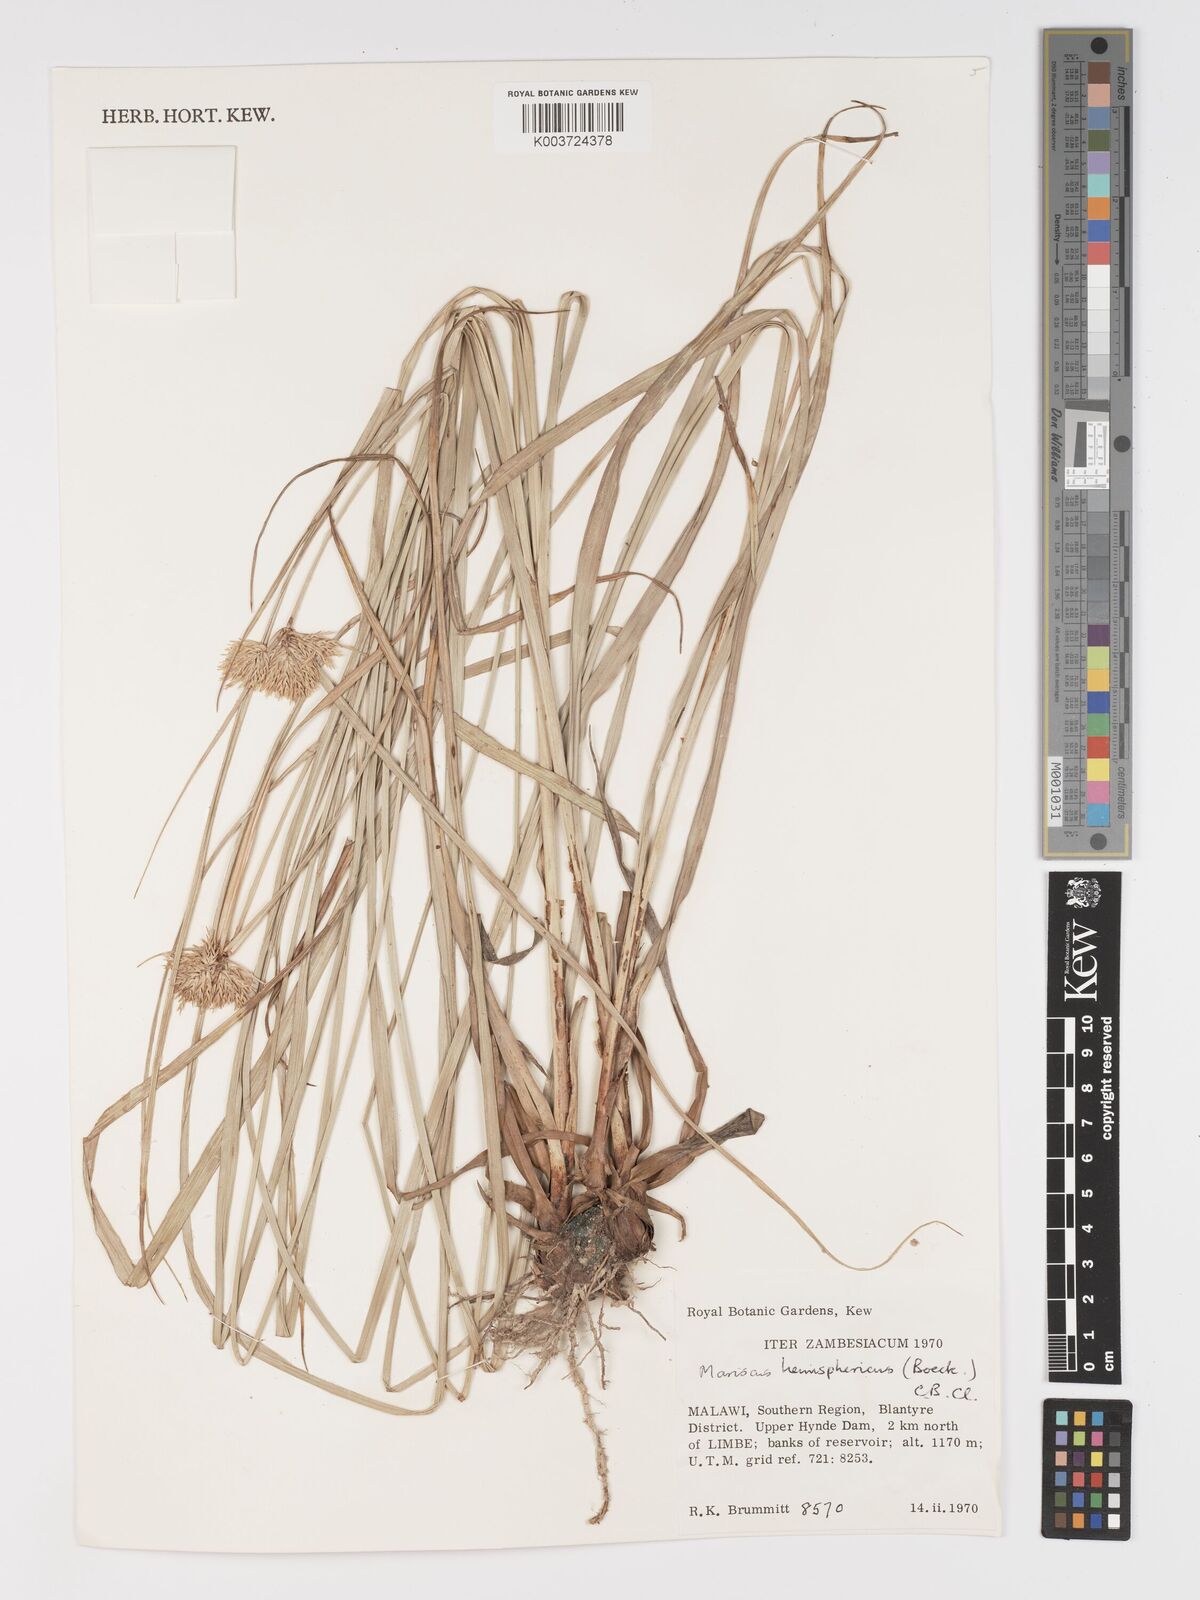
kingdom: Plantae
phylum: Tracheophyta
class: Liliopsida
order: Poales
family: Cyperaceae
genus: Cyperus
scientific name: Cyperus hemisphaericus
